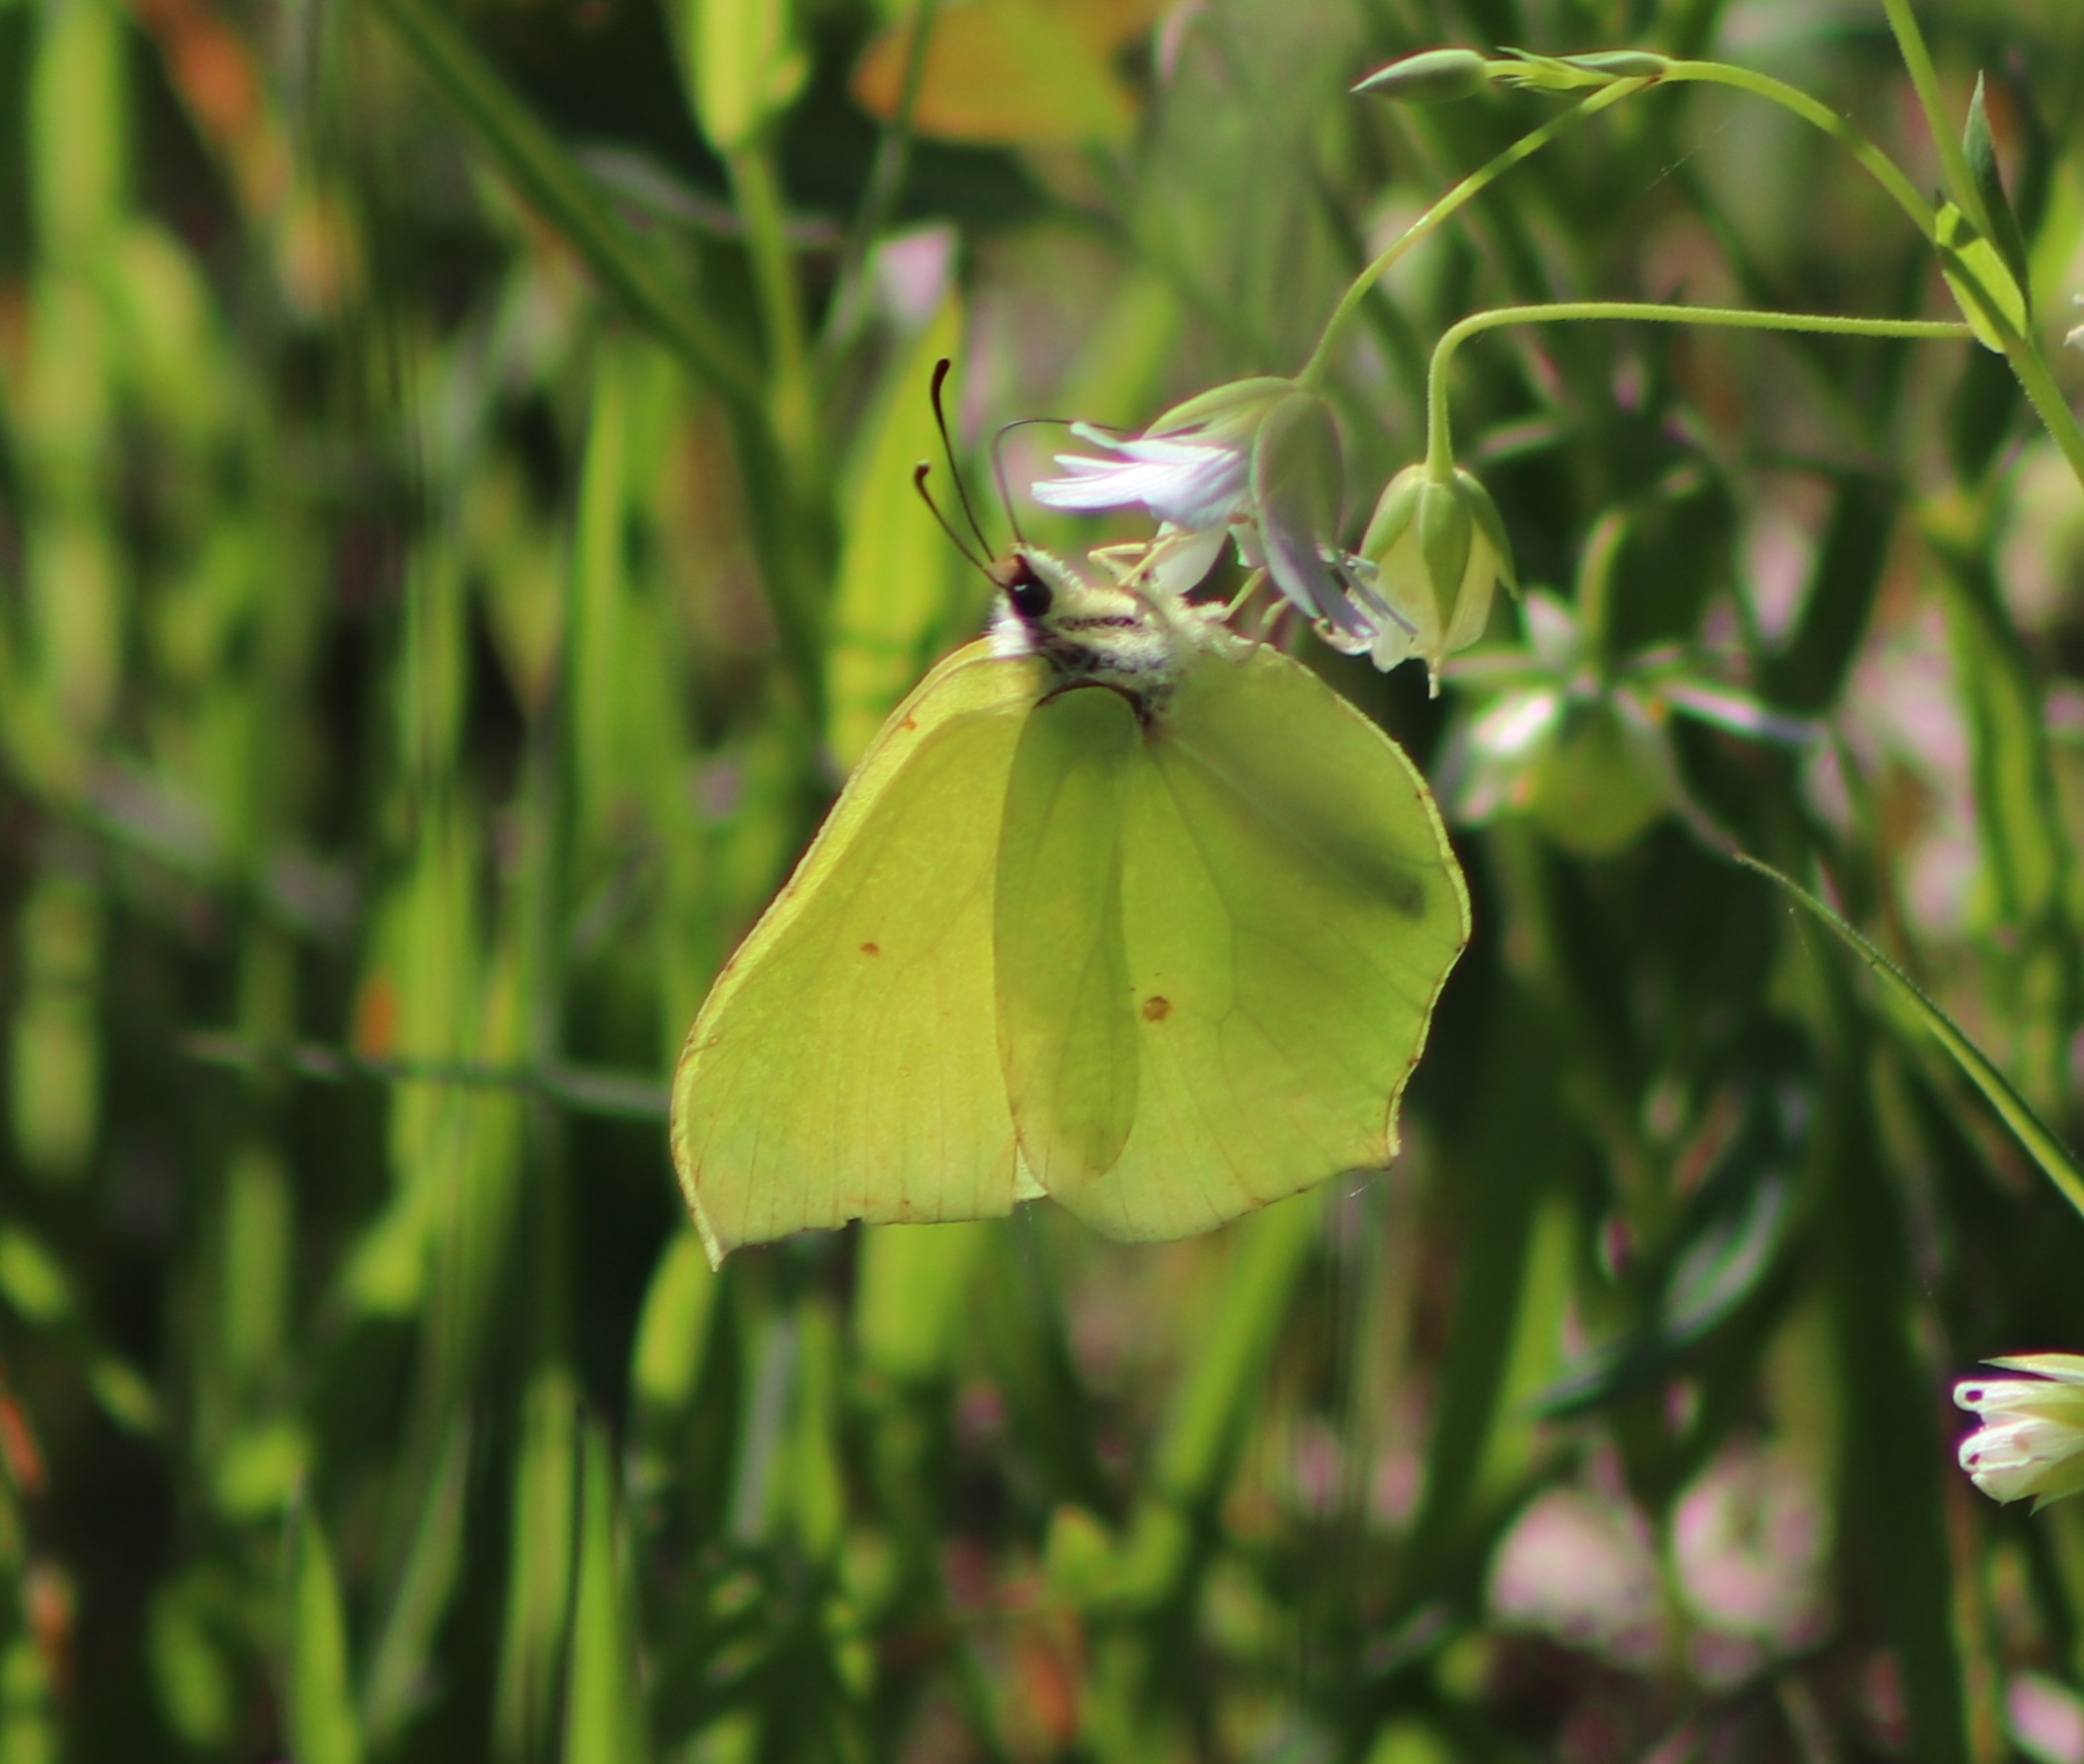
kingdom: Animalia
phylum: Arthropoda
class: Insecta
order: Lepidoptera
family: Pieridae
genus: Gonepteryx
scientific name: Gonepteryx rhamni
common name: Citronsommerfugl
